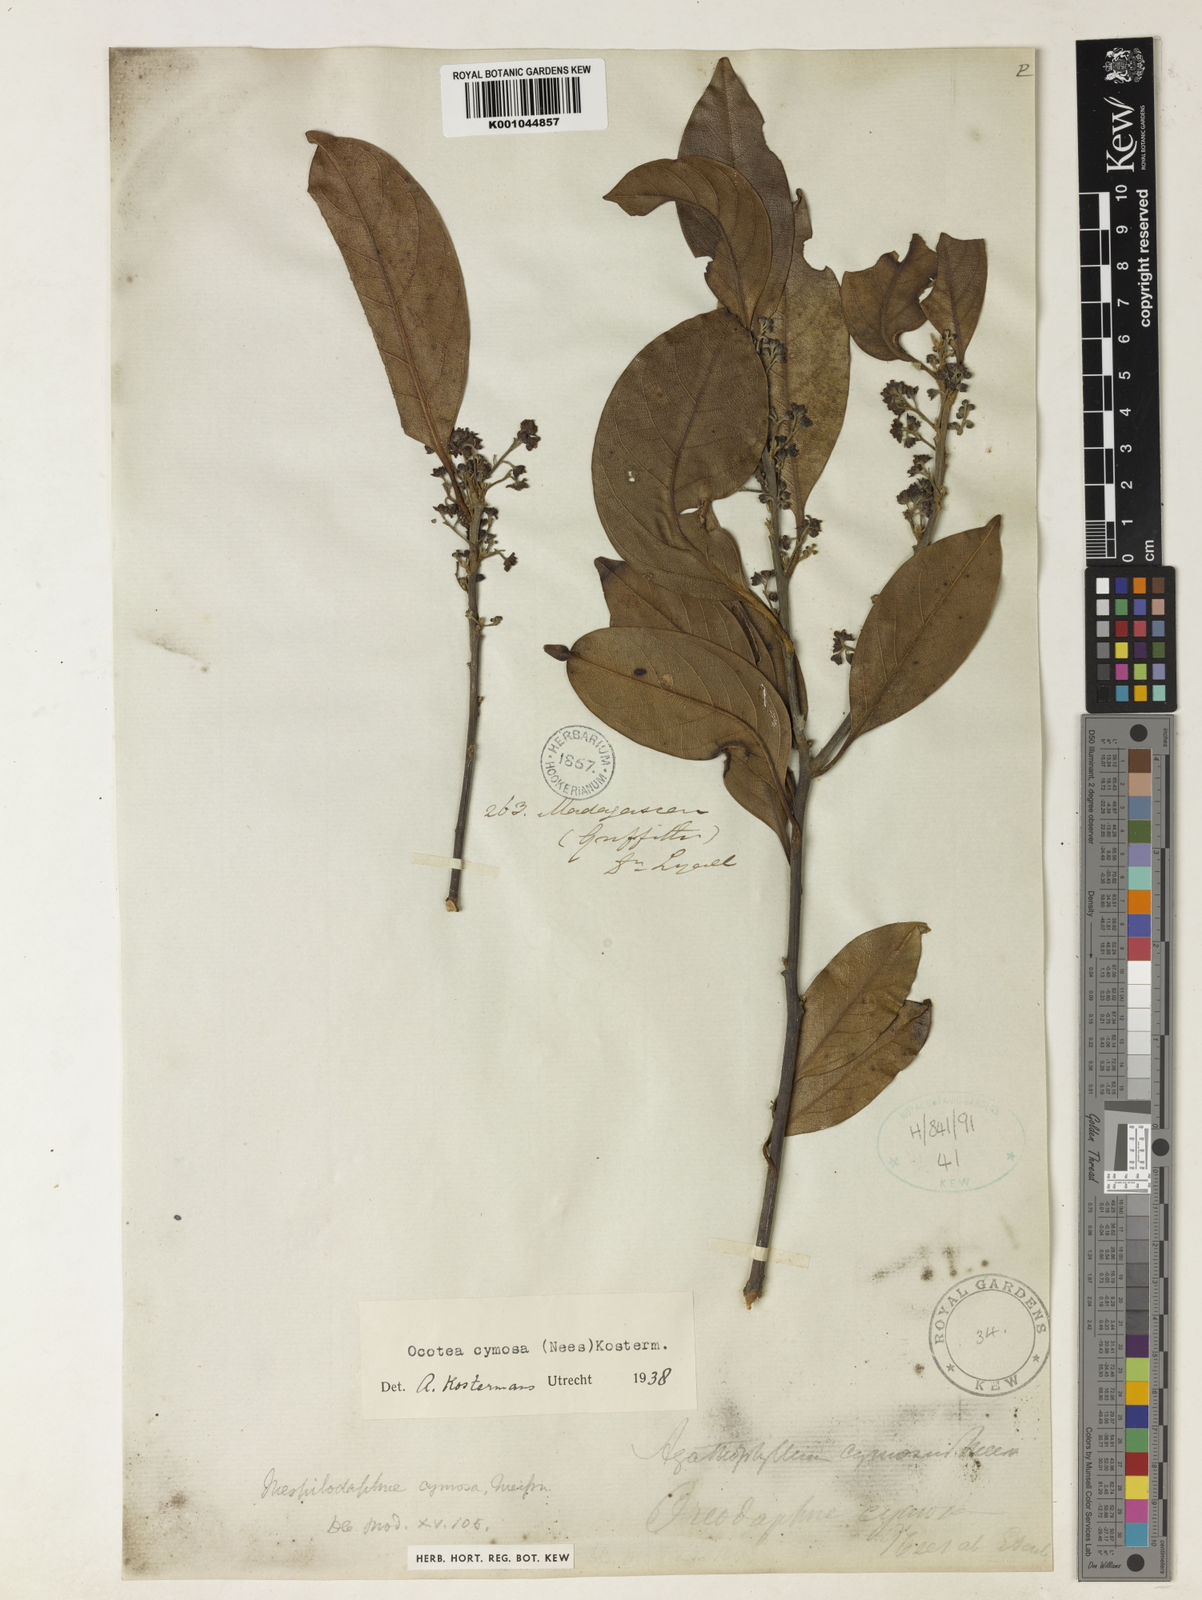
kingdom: Plantae
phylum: Tracheophyta
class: Magnoliopsida
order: Laurales
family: Lauraceae
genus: Mespilodaphne
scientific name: Mespilodaphne cymosa
